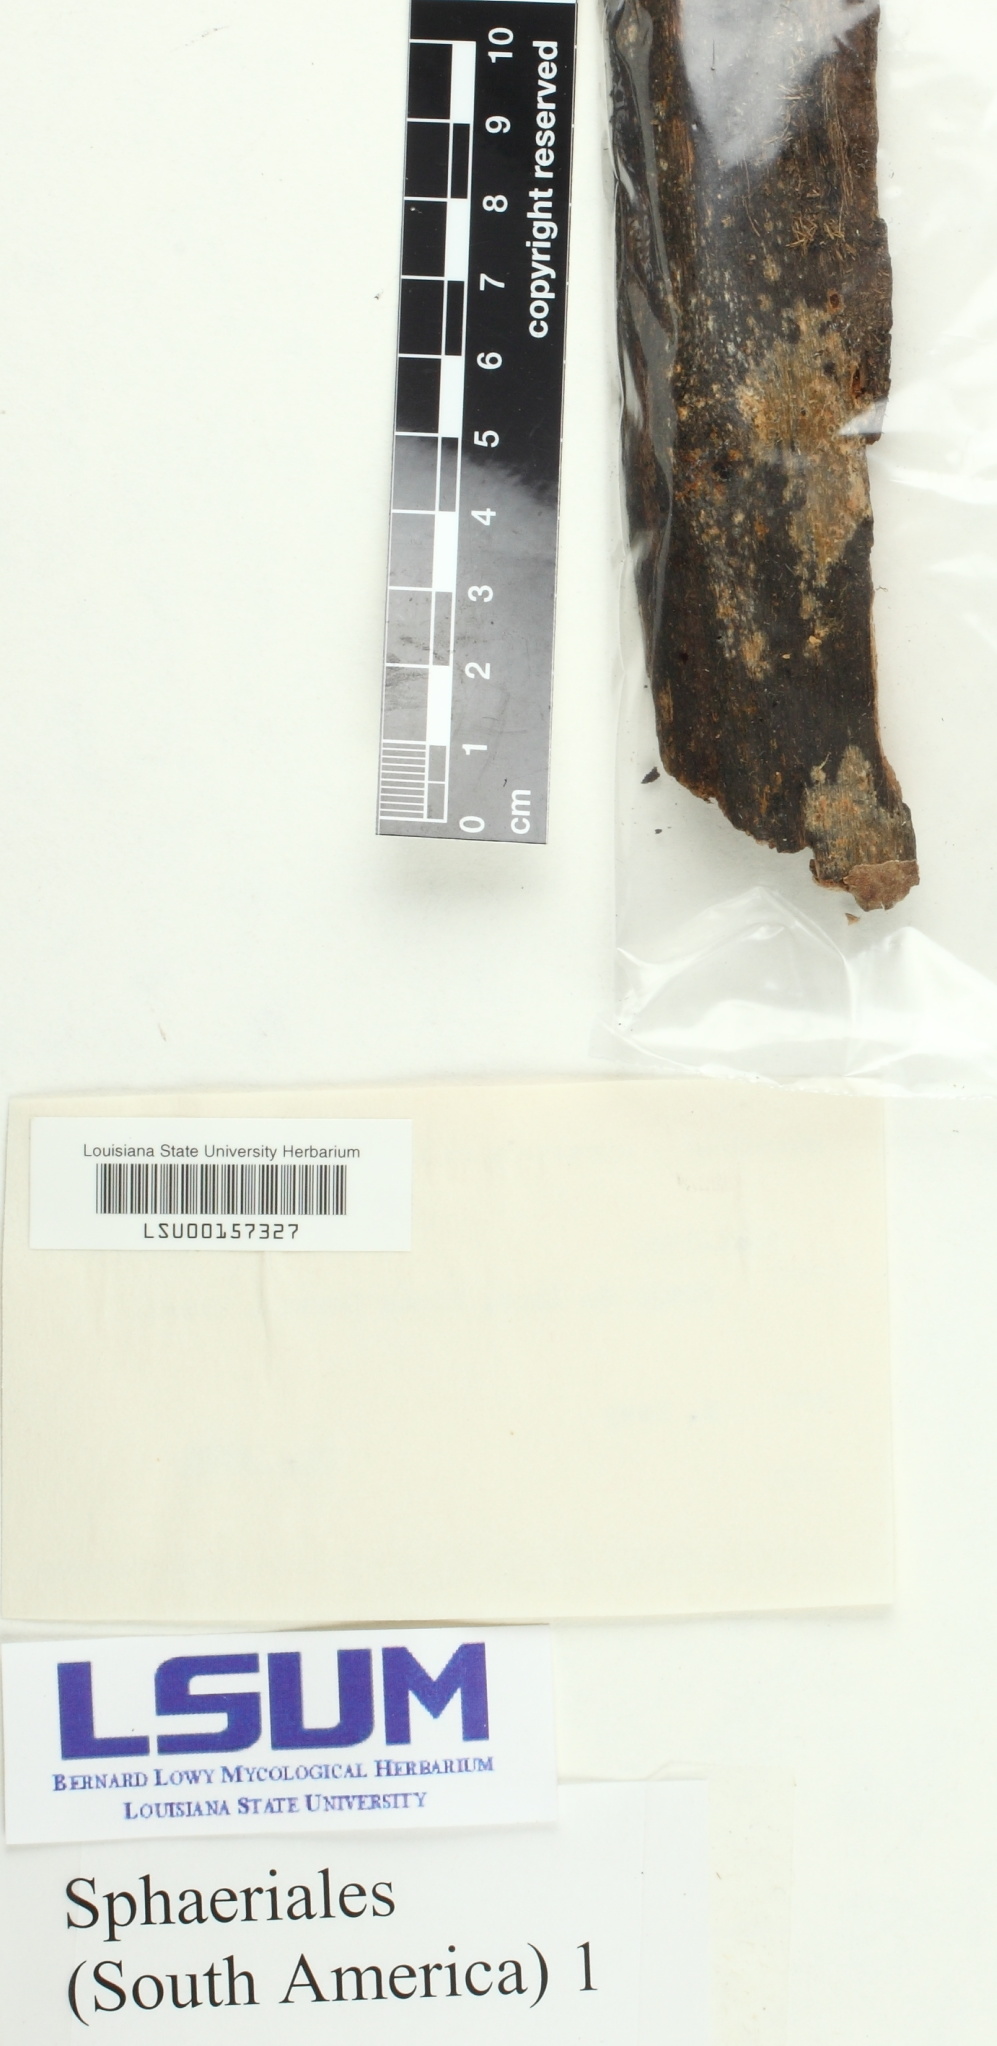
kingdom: Fungi
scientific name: Fungi
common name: Fungi
